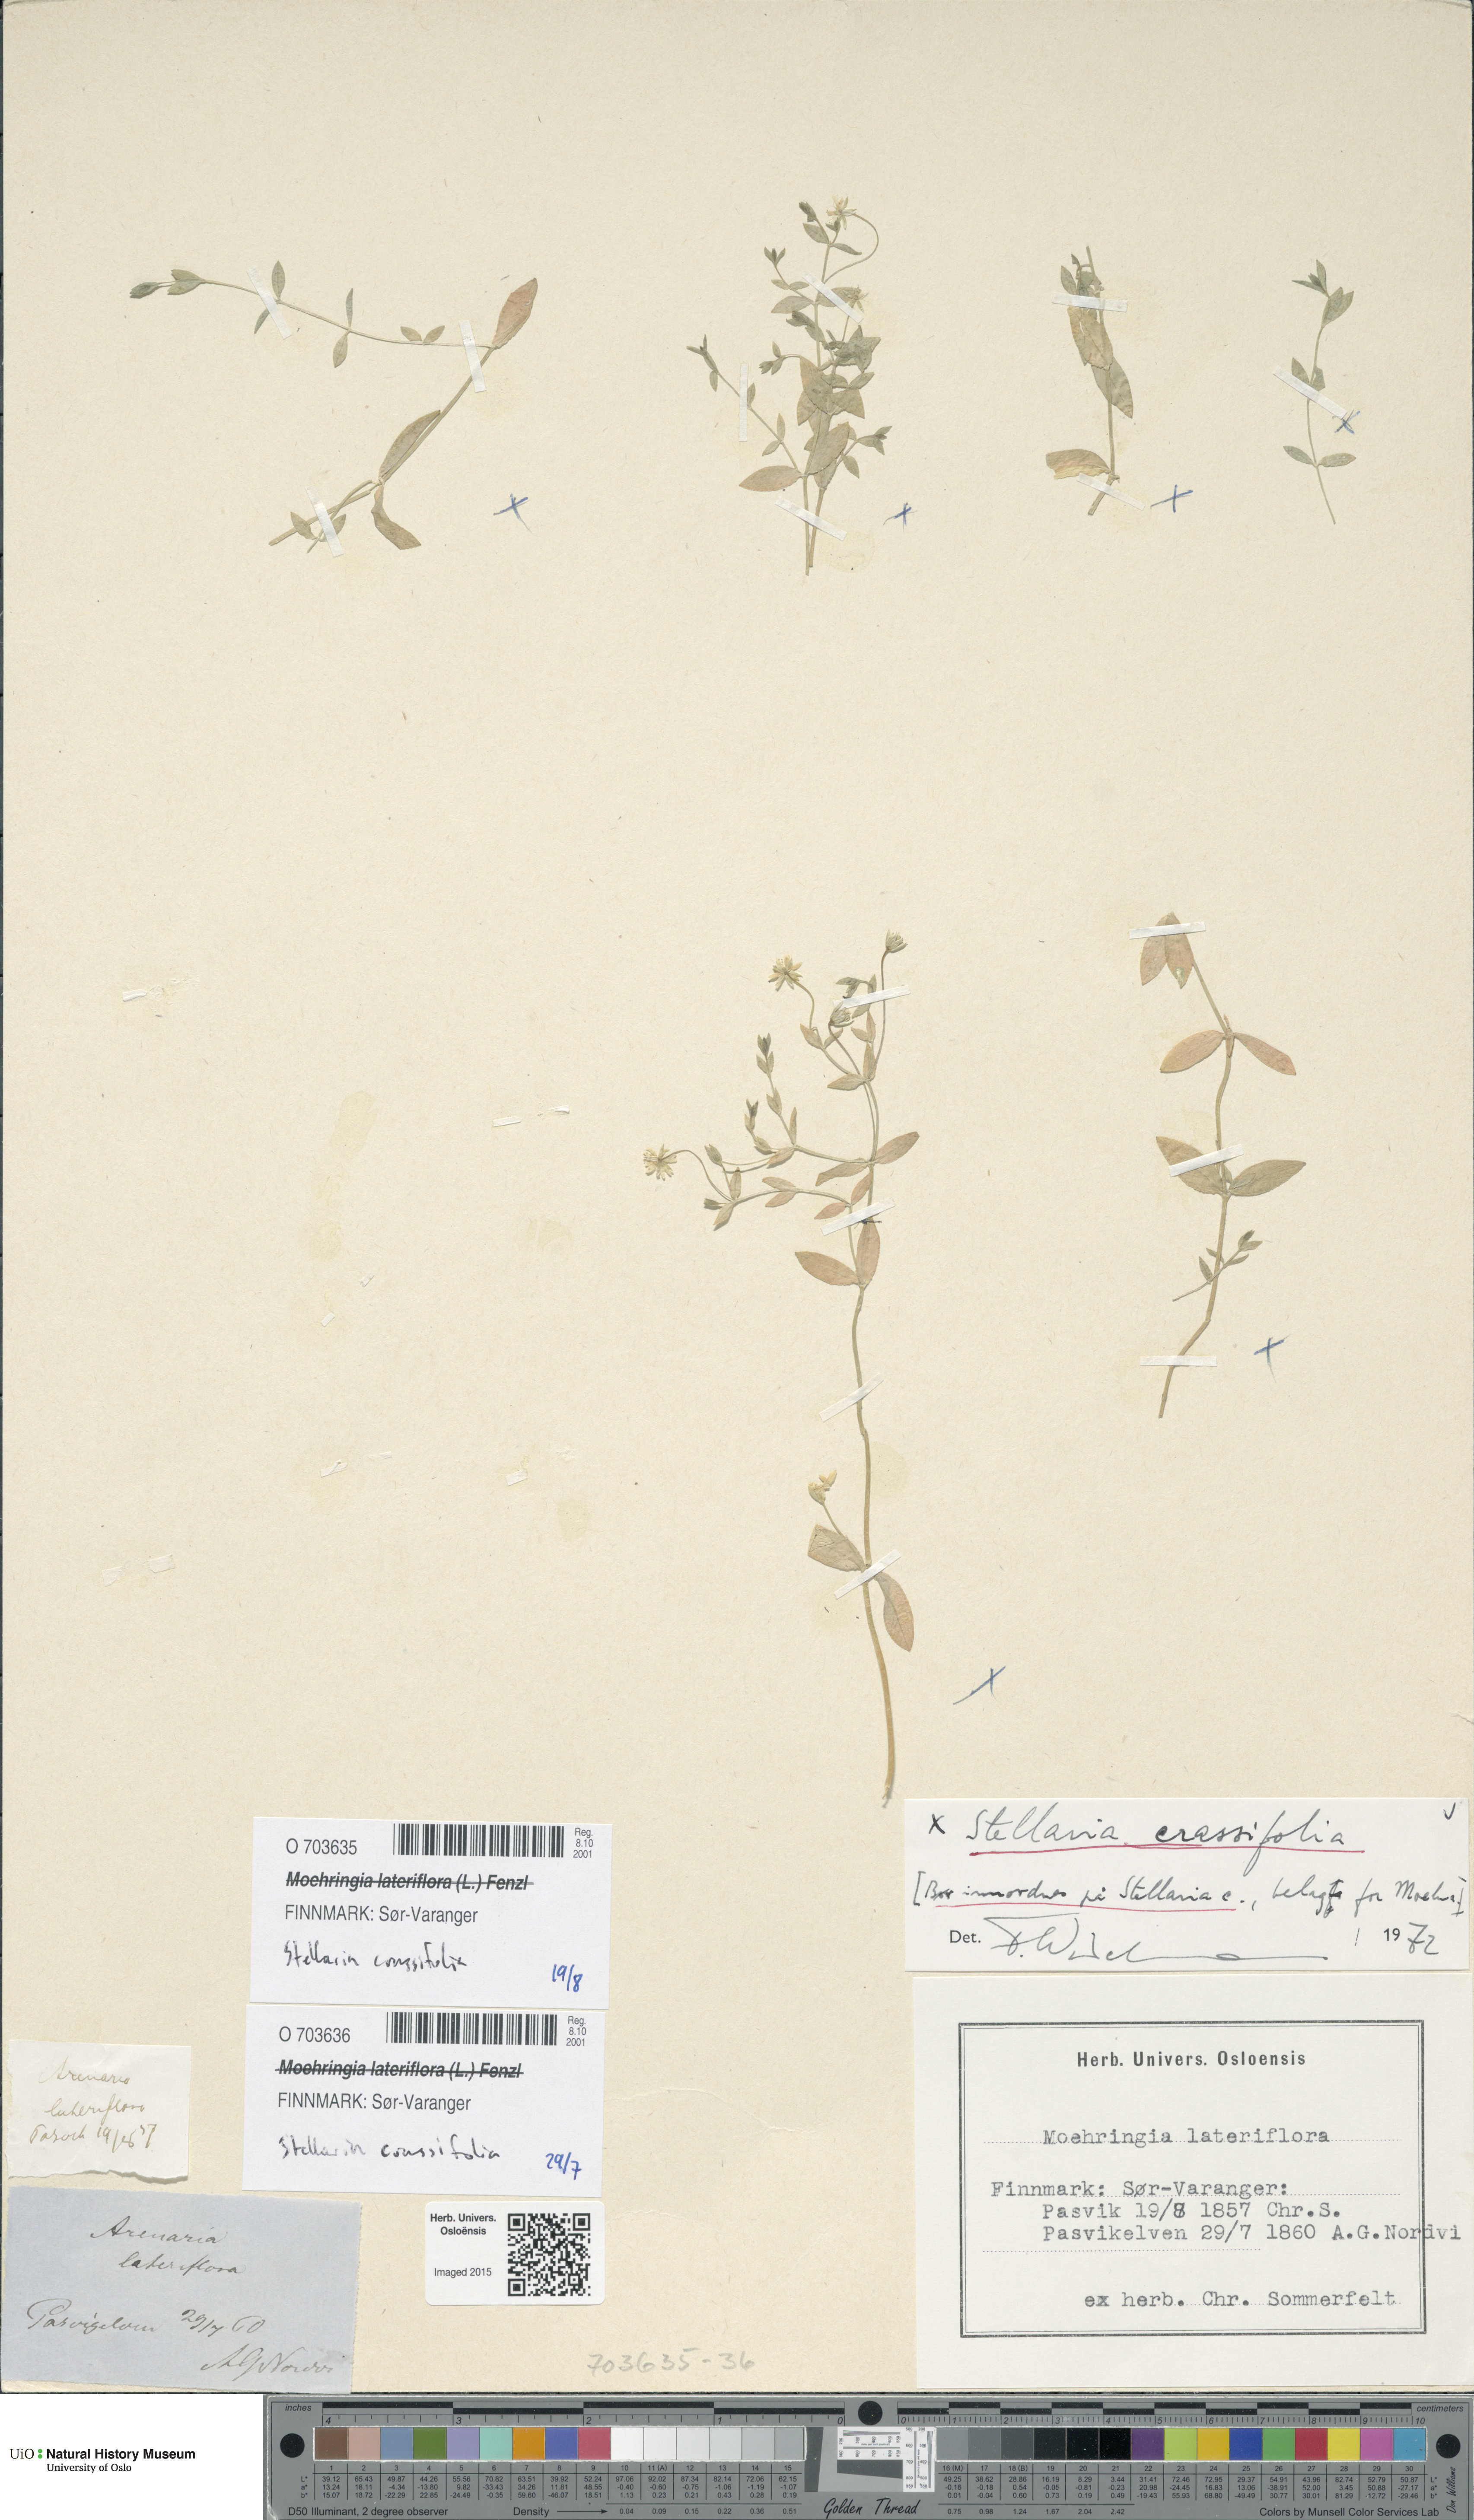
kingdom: Plantae
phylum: Tracheophyta
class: Magnoliopsida
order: Caryophyllales
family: Caryophyllaceae
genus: Stellaria
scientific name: Stellaria crassifolia
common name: Fleshy starwort
